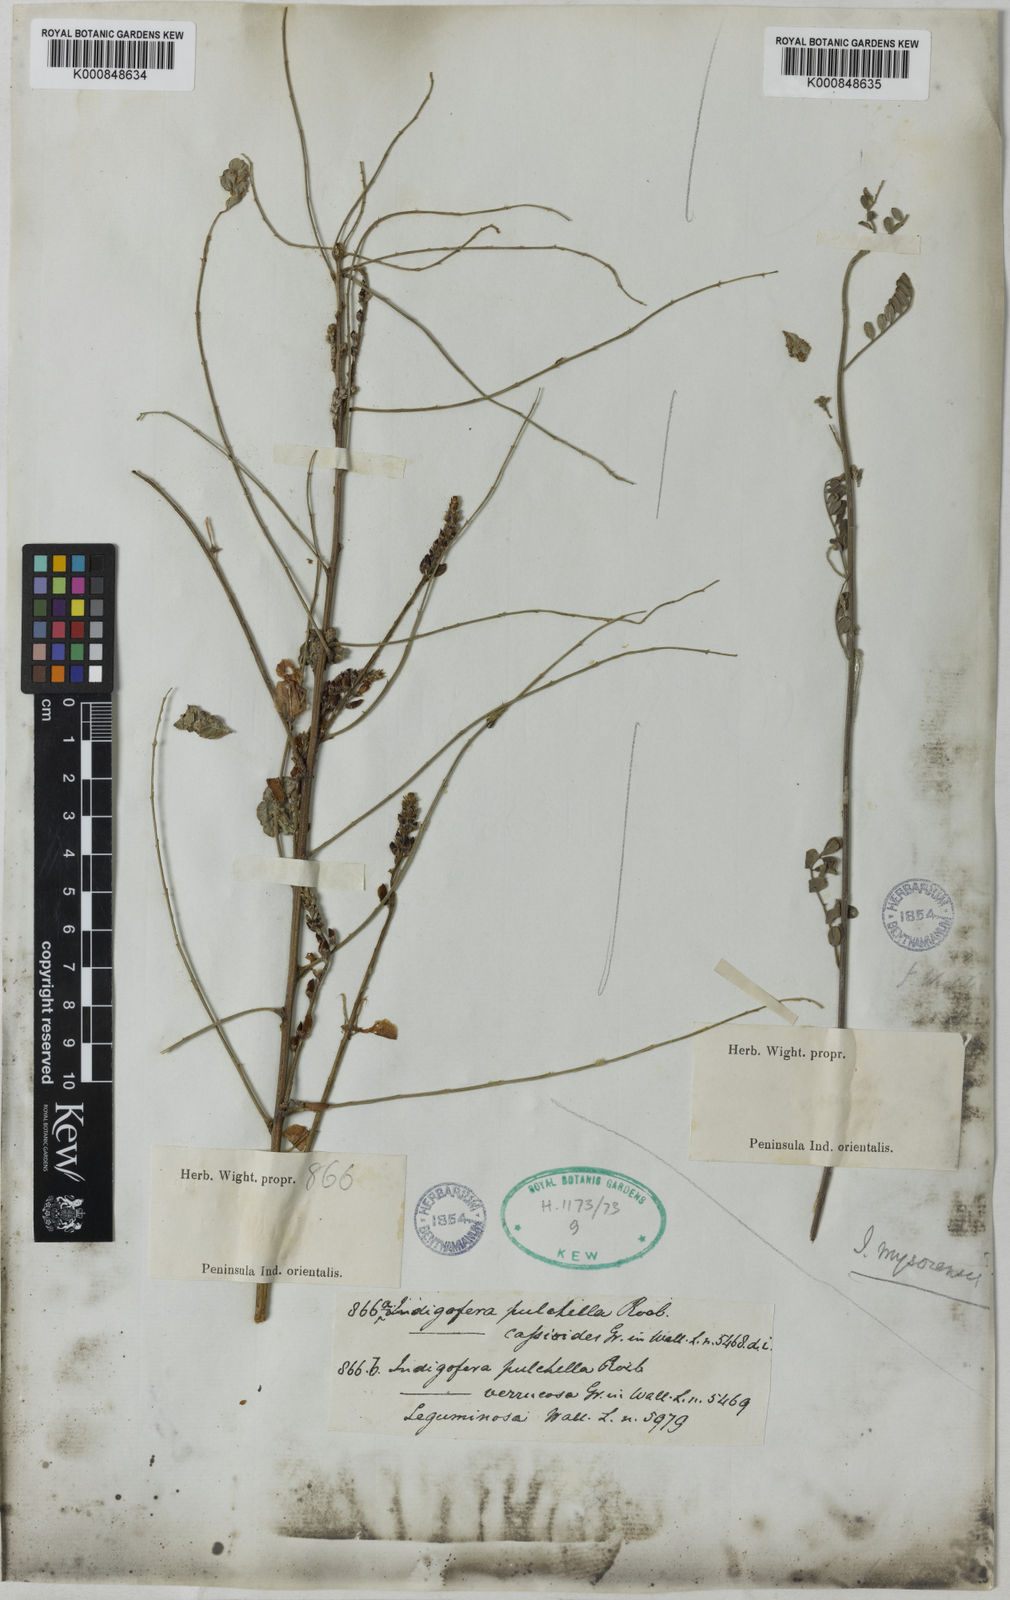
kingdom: Plantae
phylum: Tracheophyta
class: Magnoliopsida
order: Fabales
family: Fabaceae
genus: Indigofera
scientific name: Indigofera cassioides
